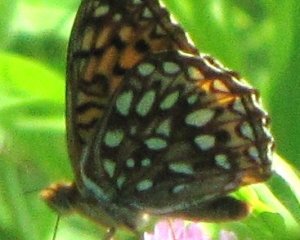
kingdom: Animalia
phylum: Arthropoda
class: Insecta
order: Lepidoptera
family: Nymphalidae
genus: Speyeria
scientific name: Speyeria atlantis
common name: Atlantis Fritillary
